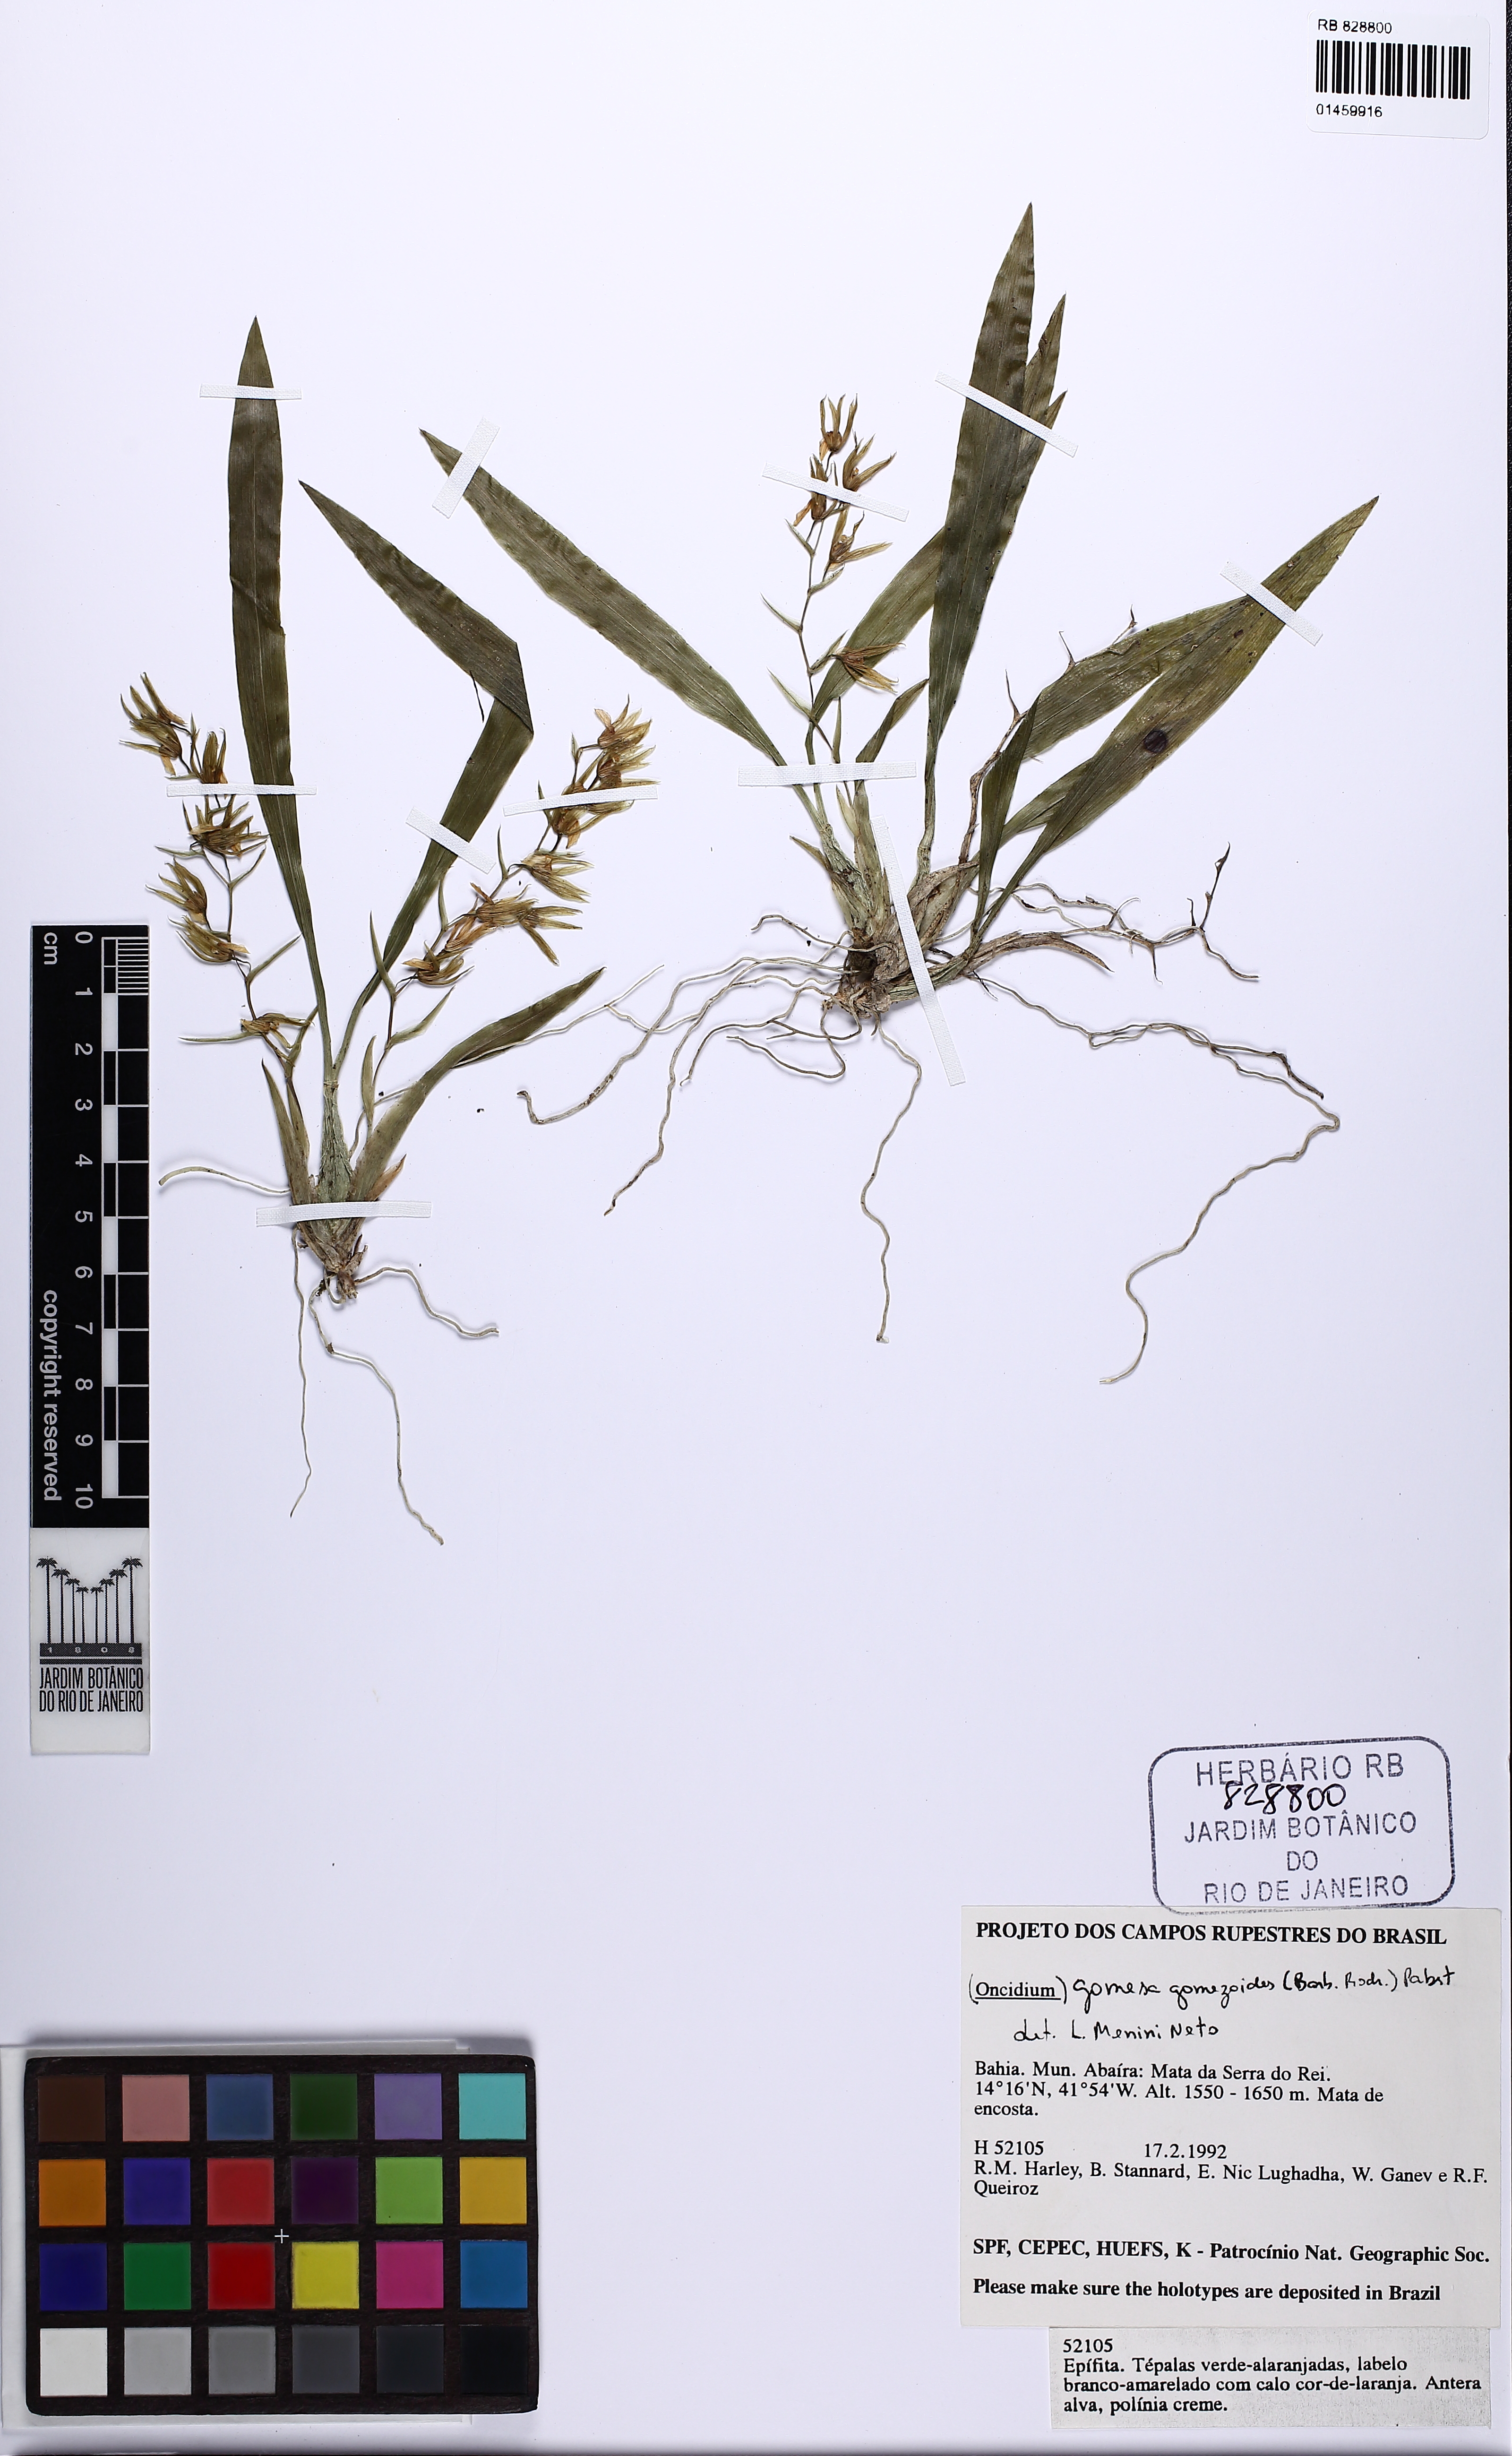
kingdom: Plantae
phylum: Tracheophyta
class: Liliopsida
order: Asparagales
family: Orchidaceae
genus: Gomesa
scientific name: Gomesa gomezoides
